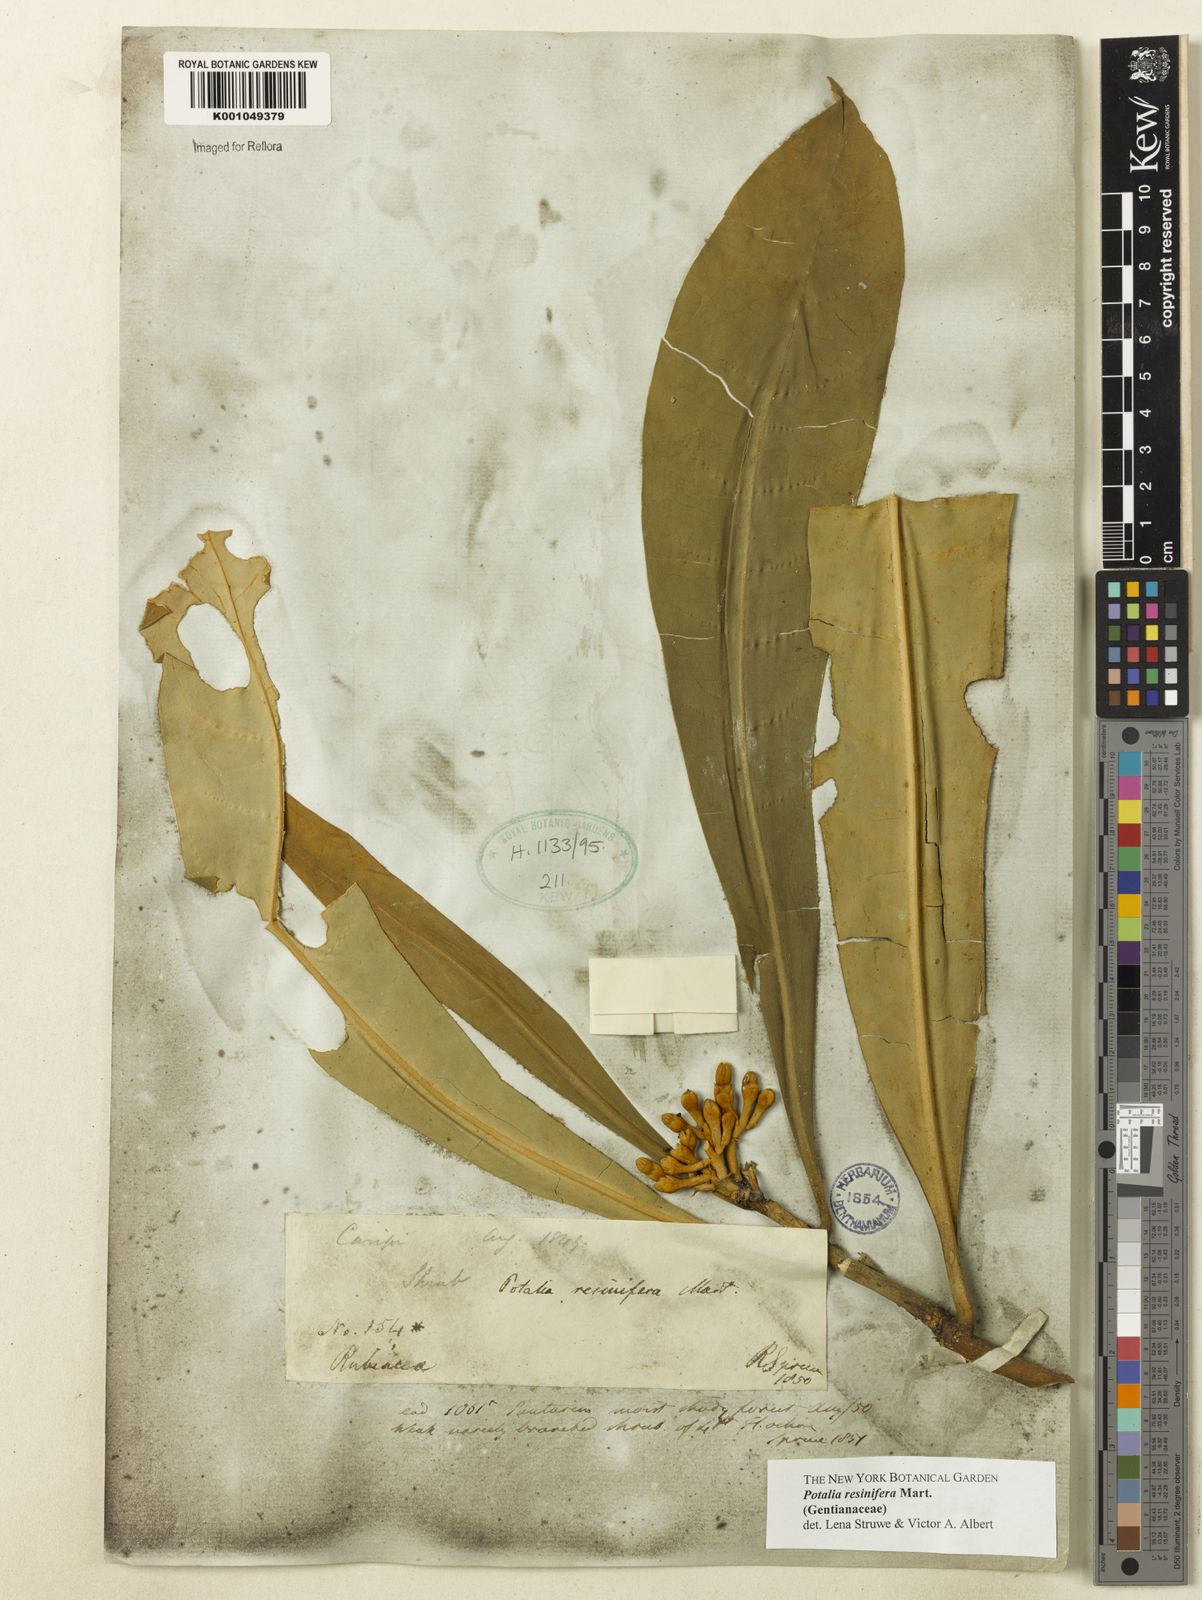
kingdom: Plantae
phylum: Tracheophyta
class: Magnoliopsida
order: Gentianales
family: Gentianaceae
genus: Potalia
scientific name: Potalia resinifera
